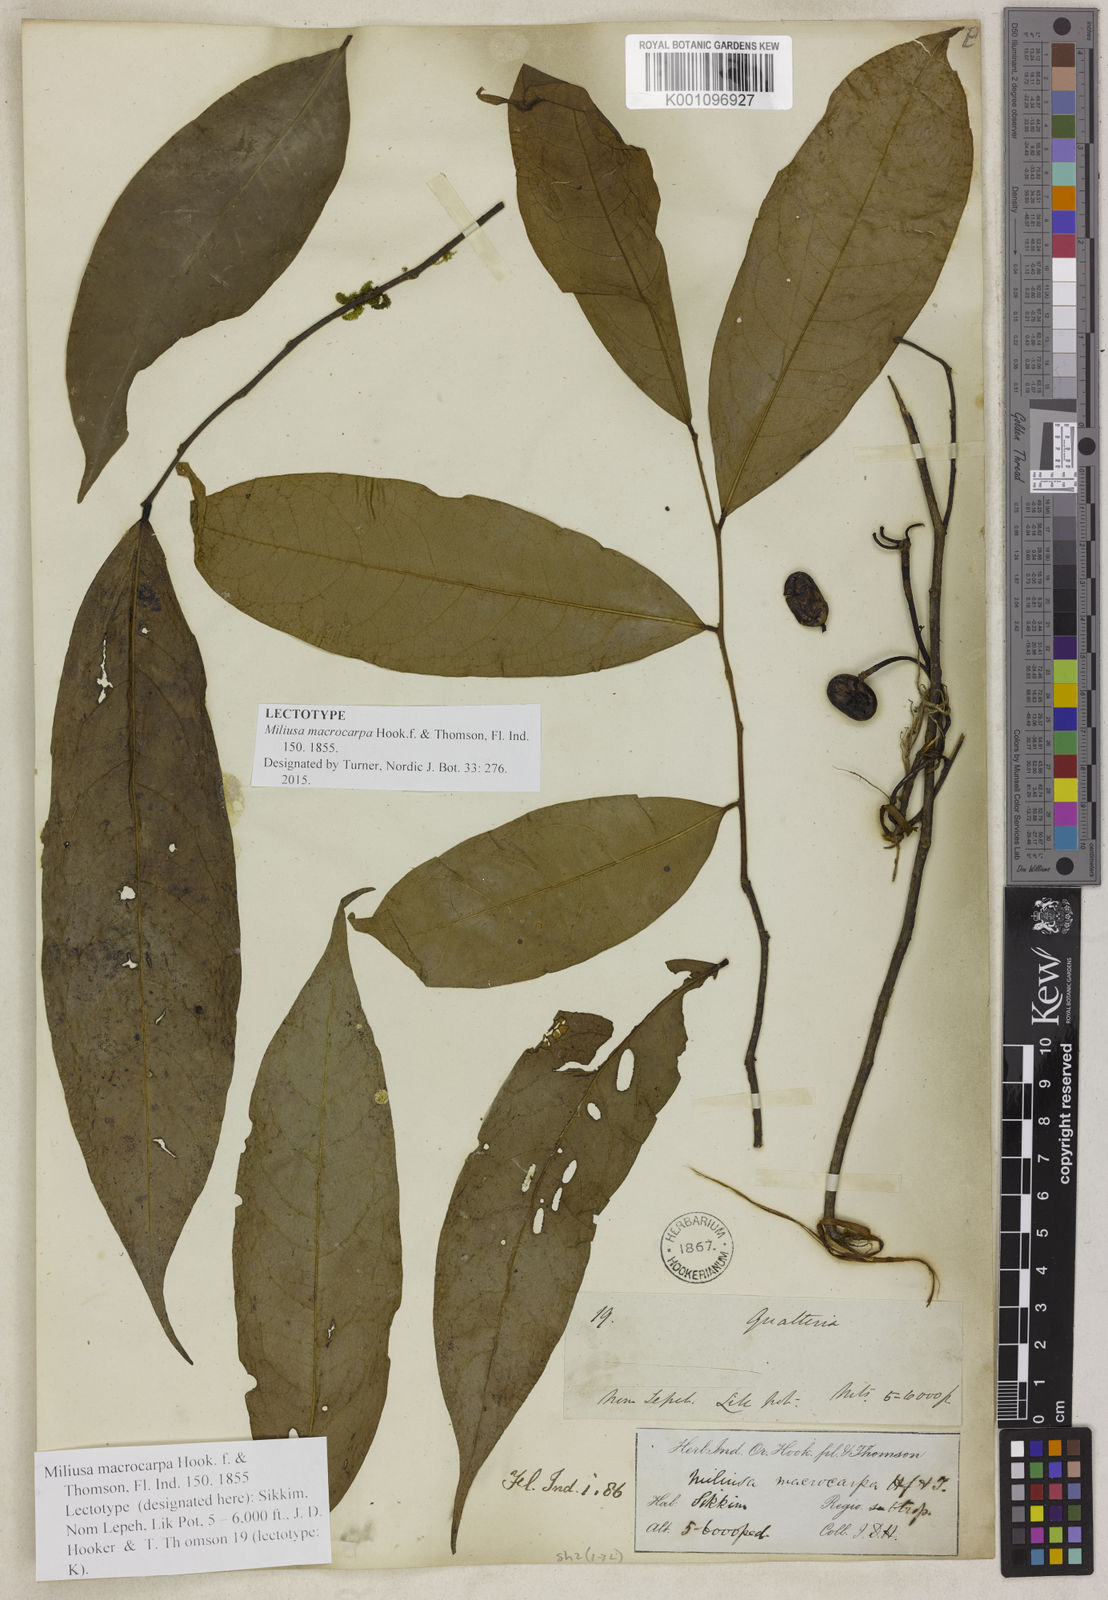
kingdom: Plantae
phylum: Tracheophyta
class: Magnoliopsida
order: Magnoliales
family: Annonaceae
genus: Miliusa
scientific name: Miliusa macrocarpa
